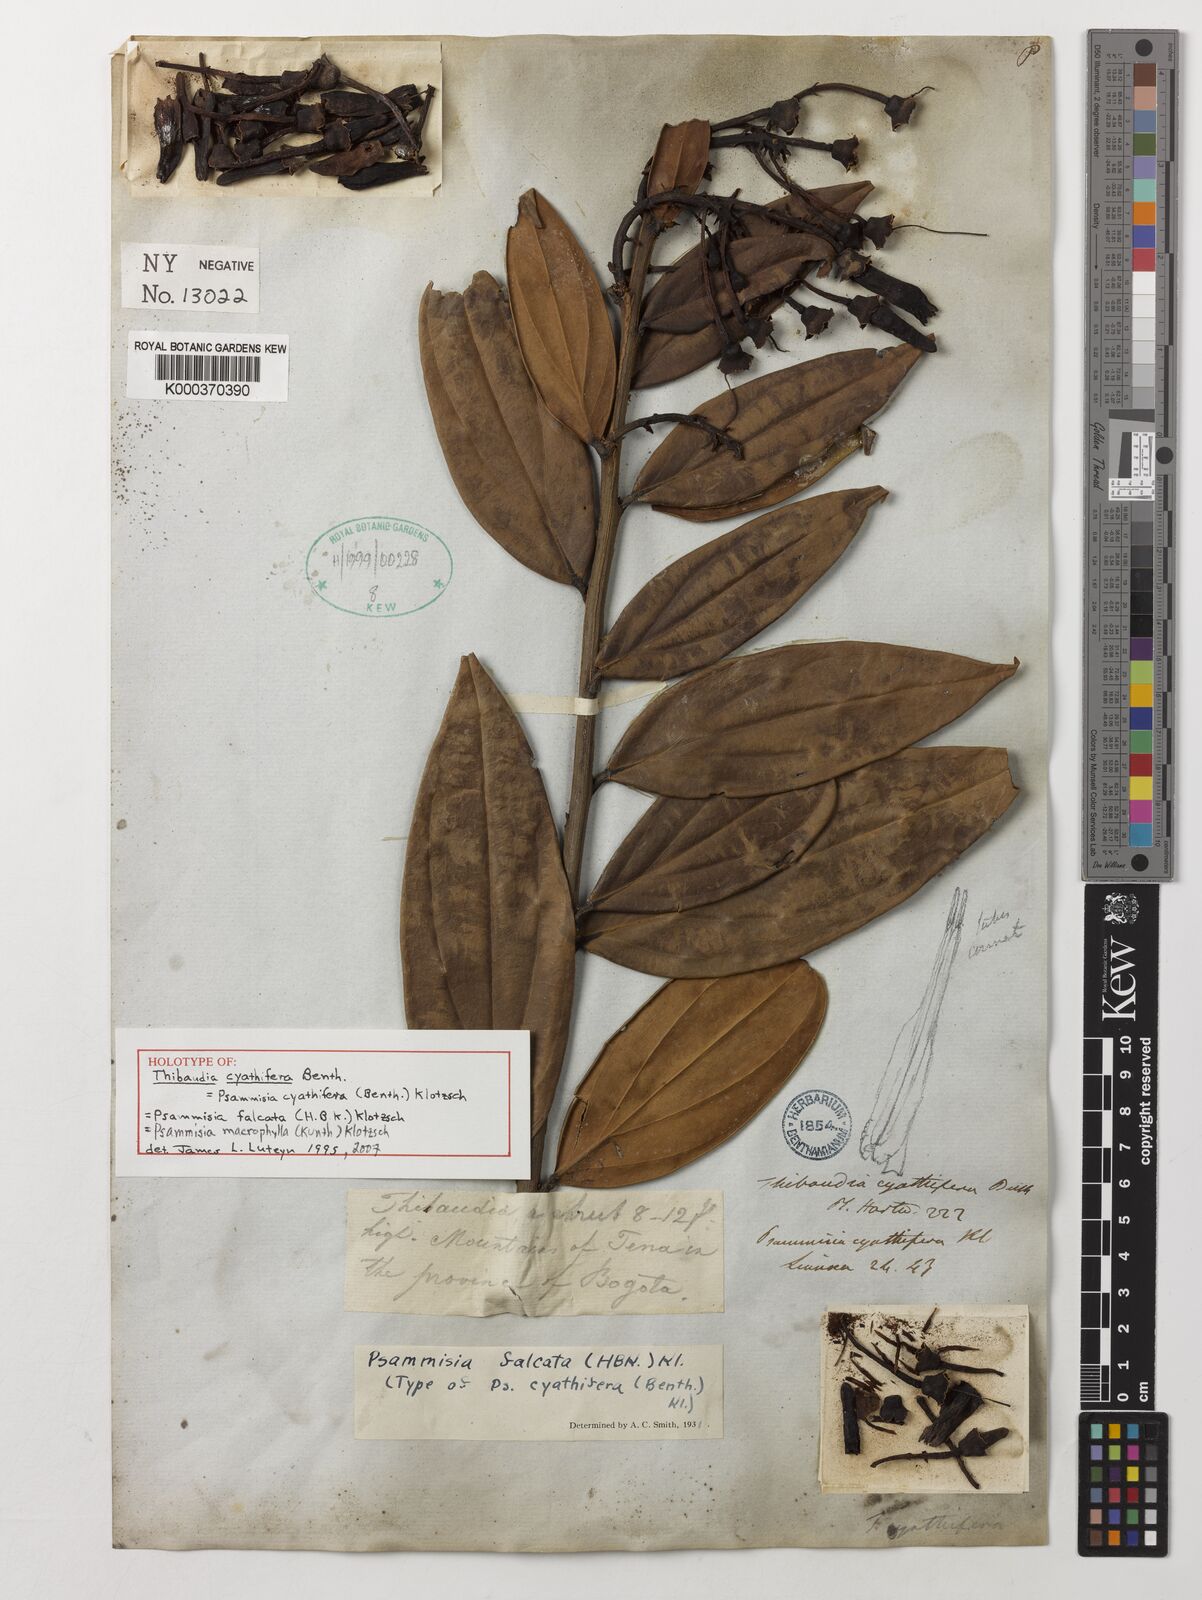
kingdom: Plantae
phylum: Tracheophyta
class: Magnoliopsida
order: Ericales
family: Ericaceae
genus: Psammisia
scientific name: Psammisia falcata
